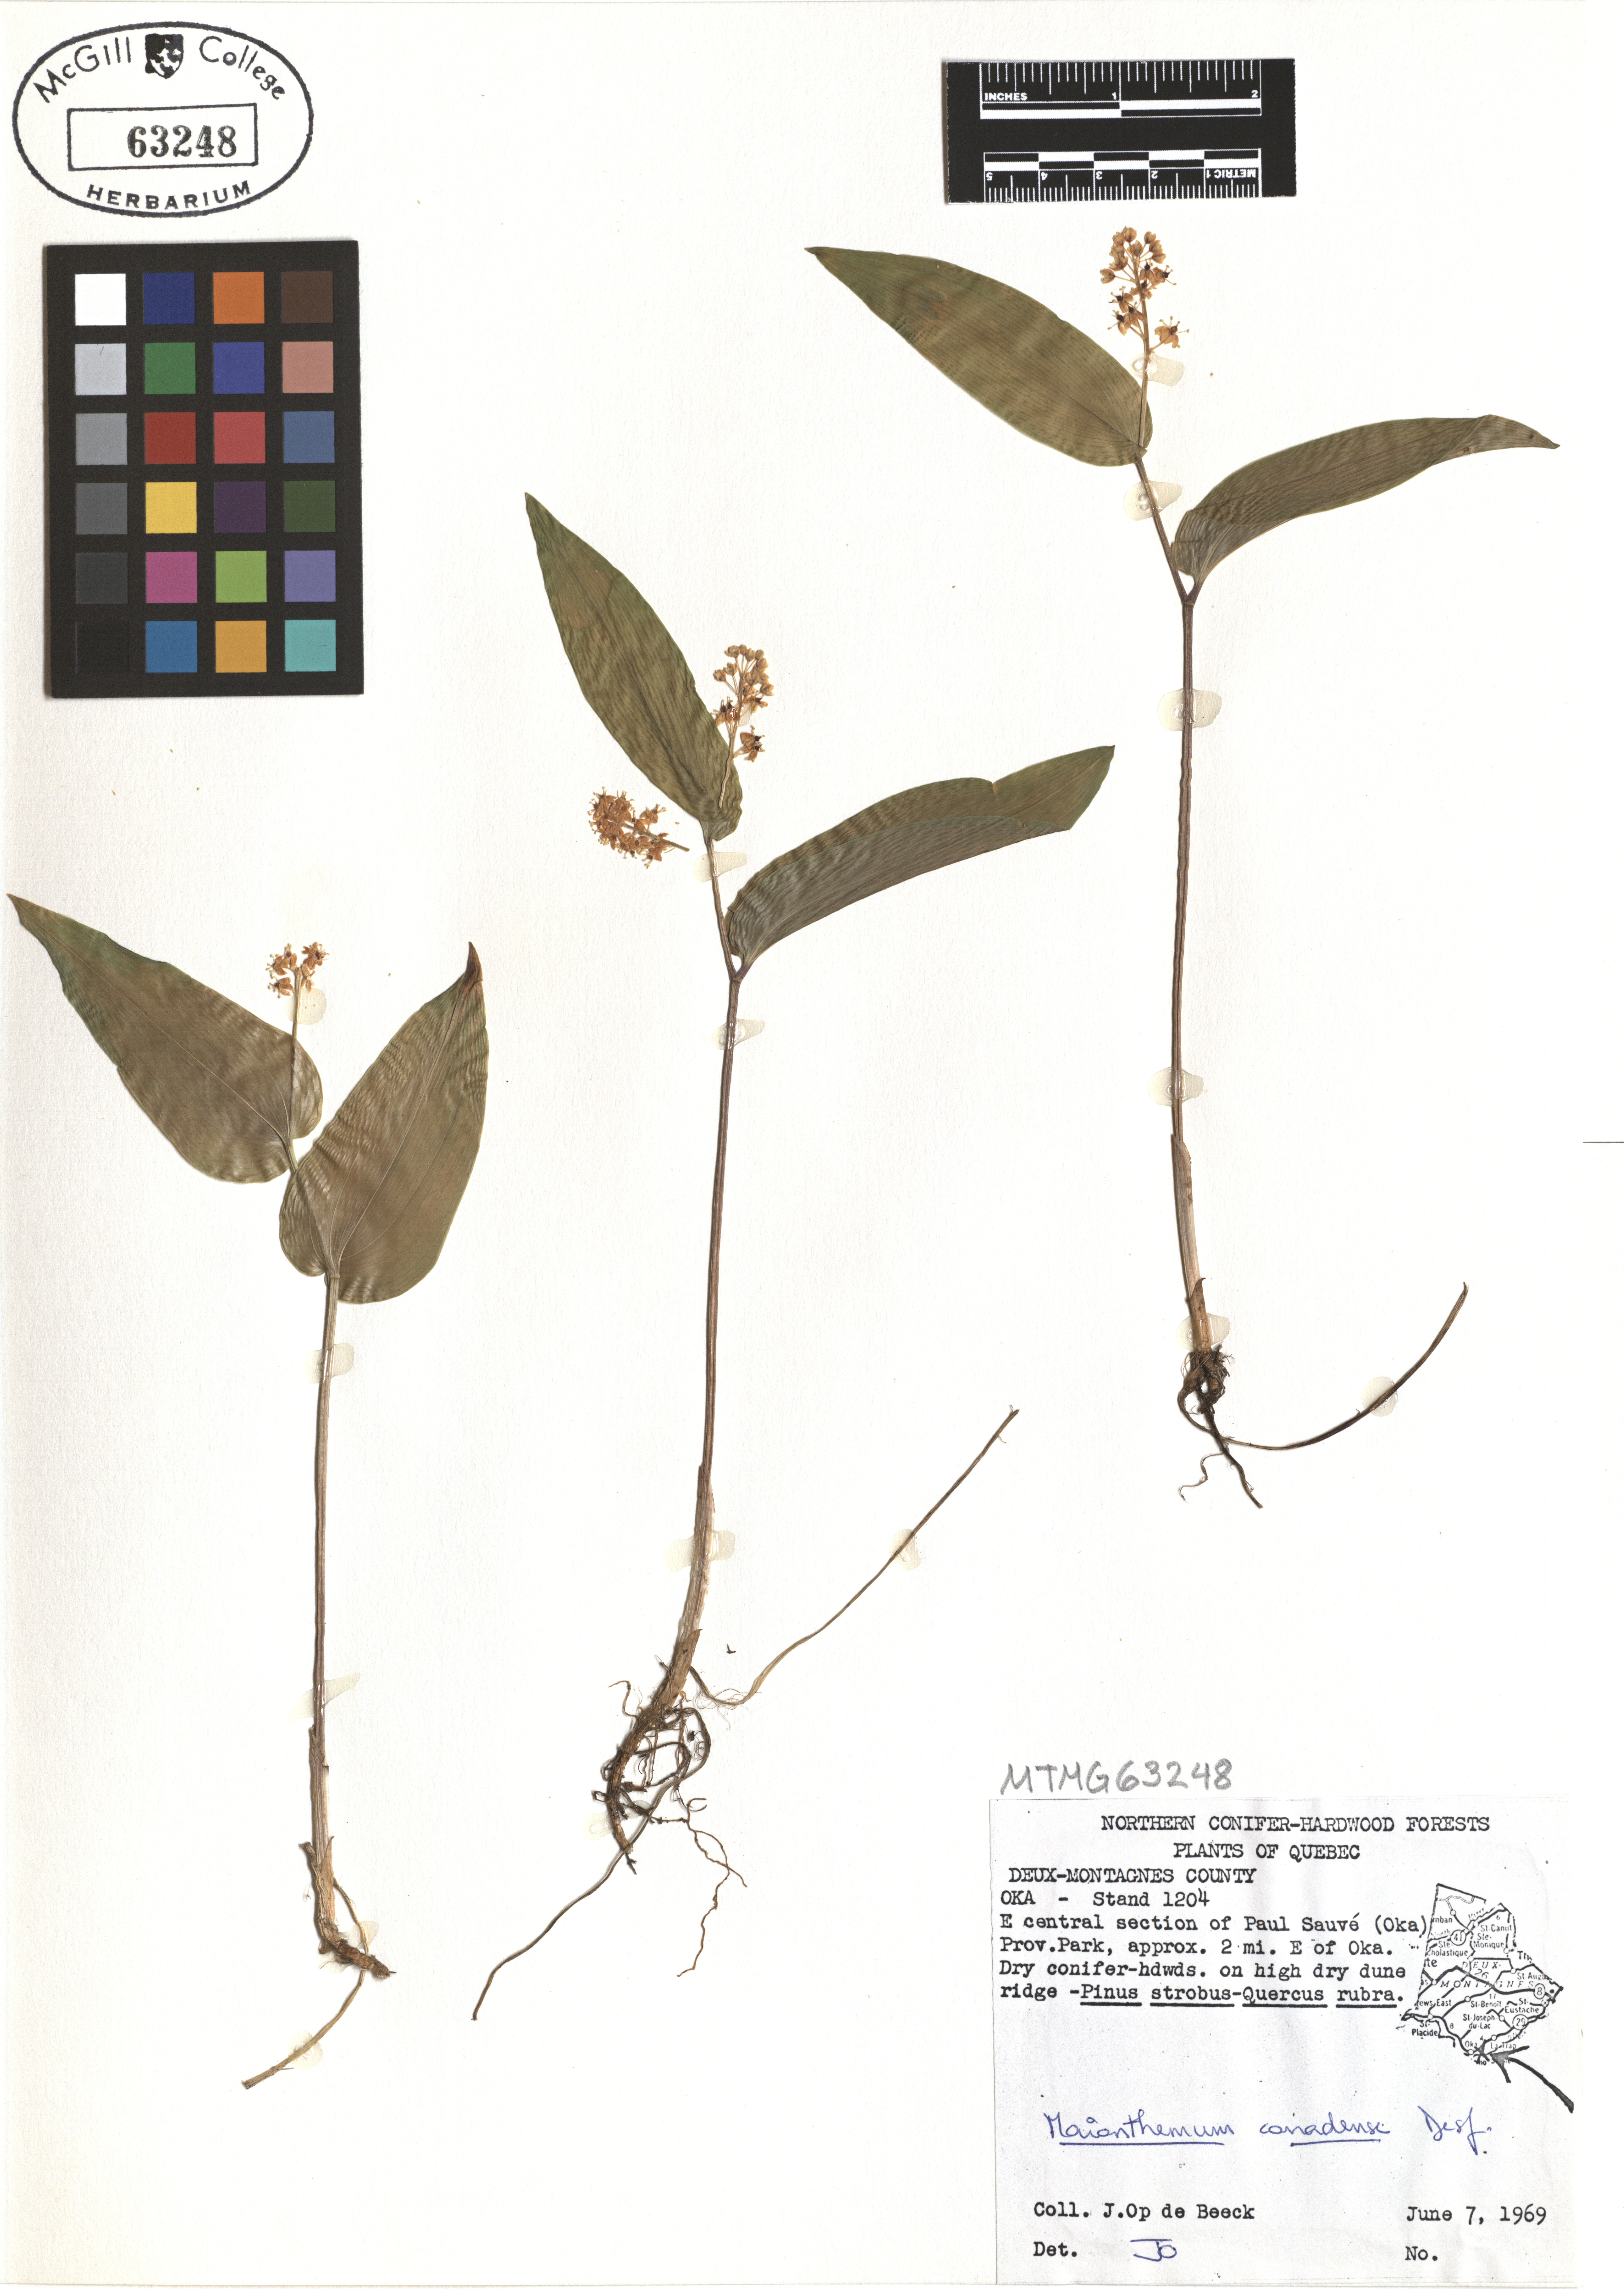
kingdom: Plantae
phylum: Tracheophyta
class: Liliopsida
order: Asparagales
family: Asparagaceae
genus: Maianthemum
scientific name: Maianthemum canadense
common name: False lily-of-the-valley
